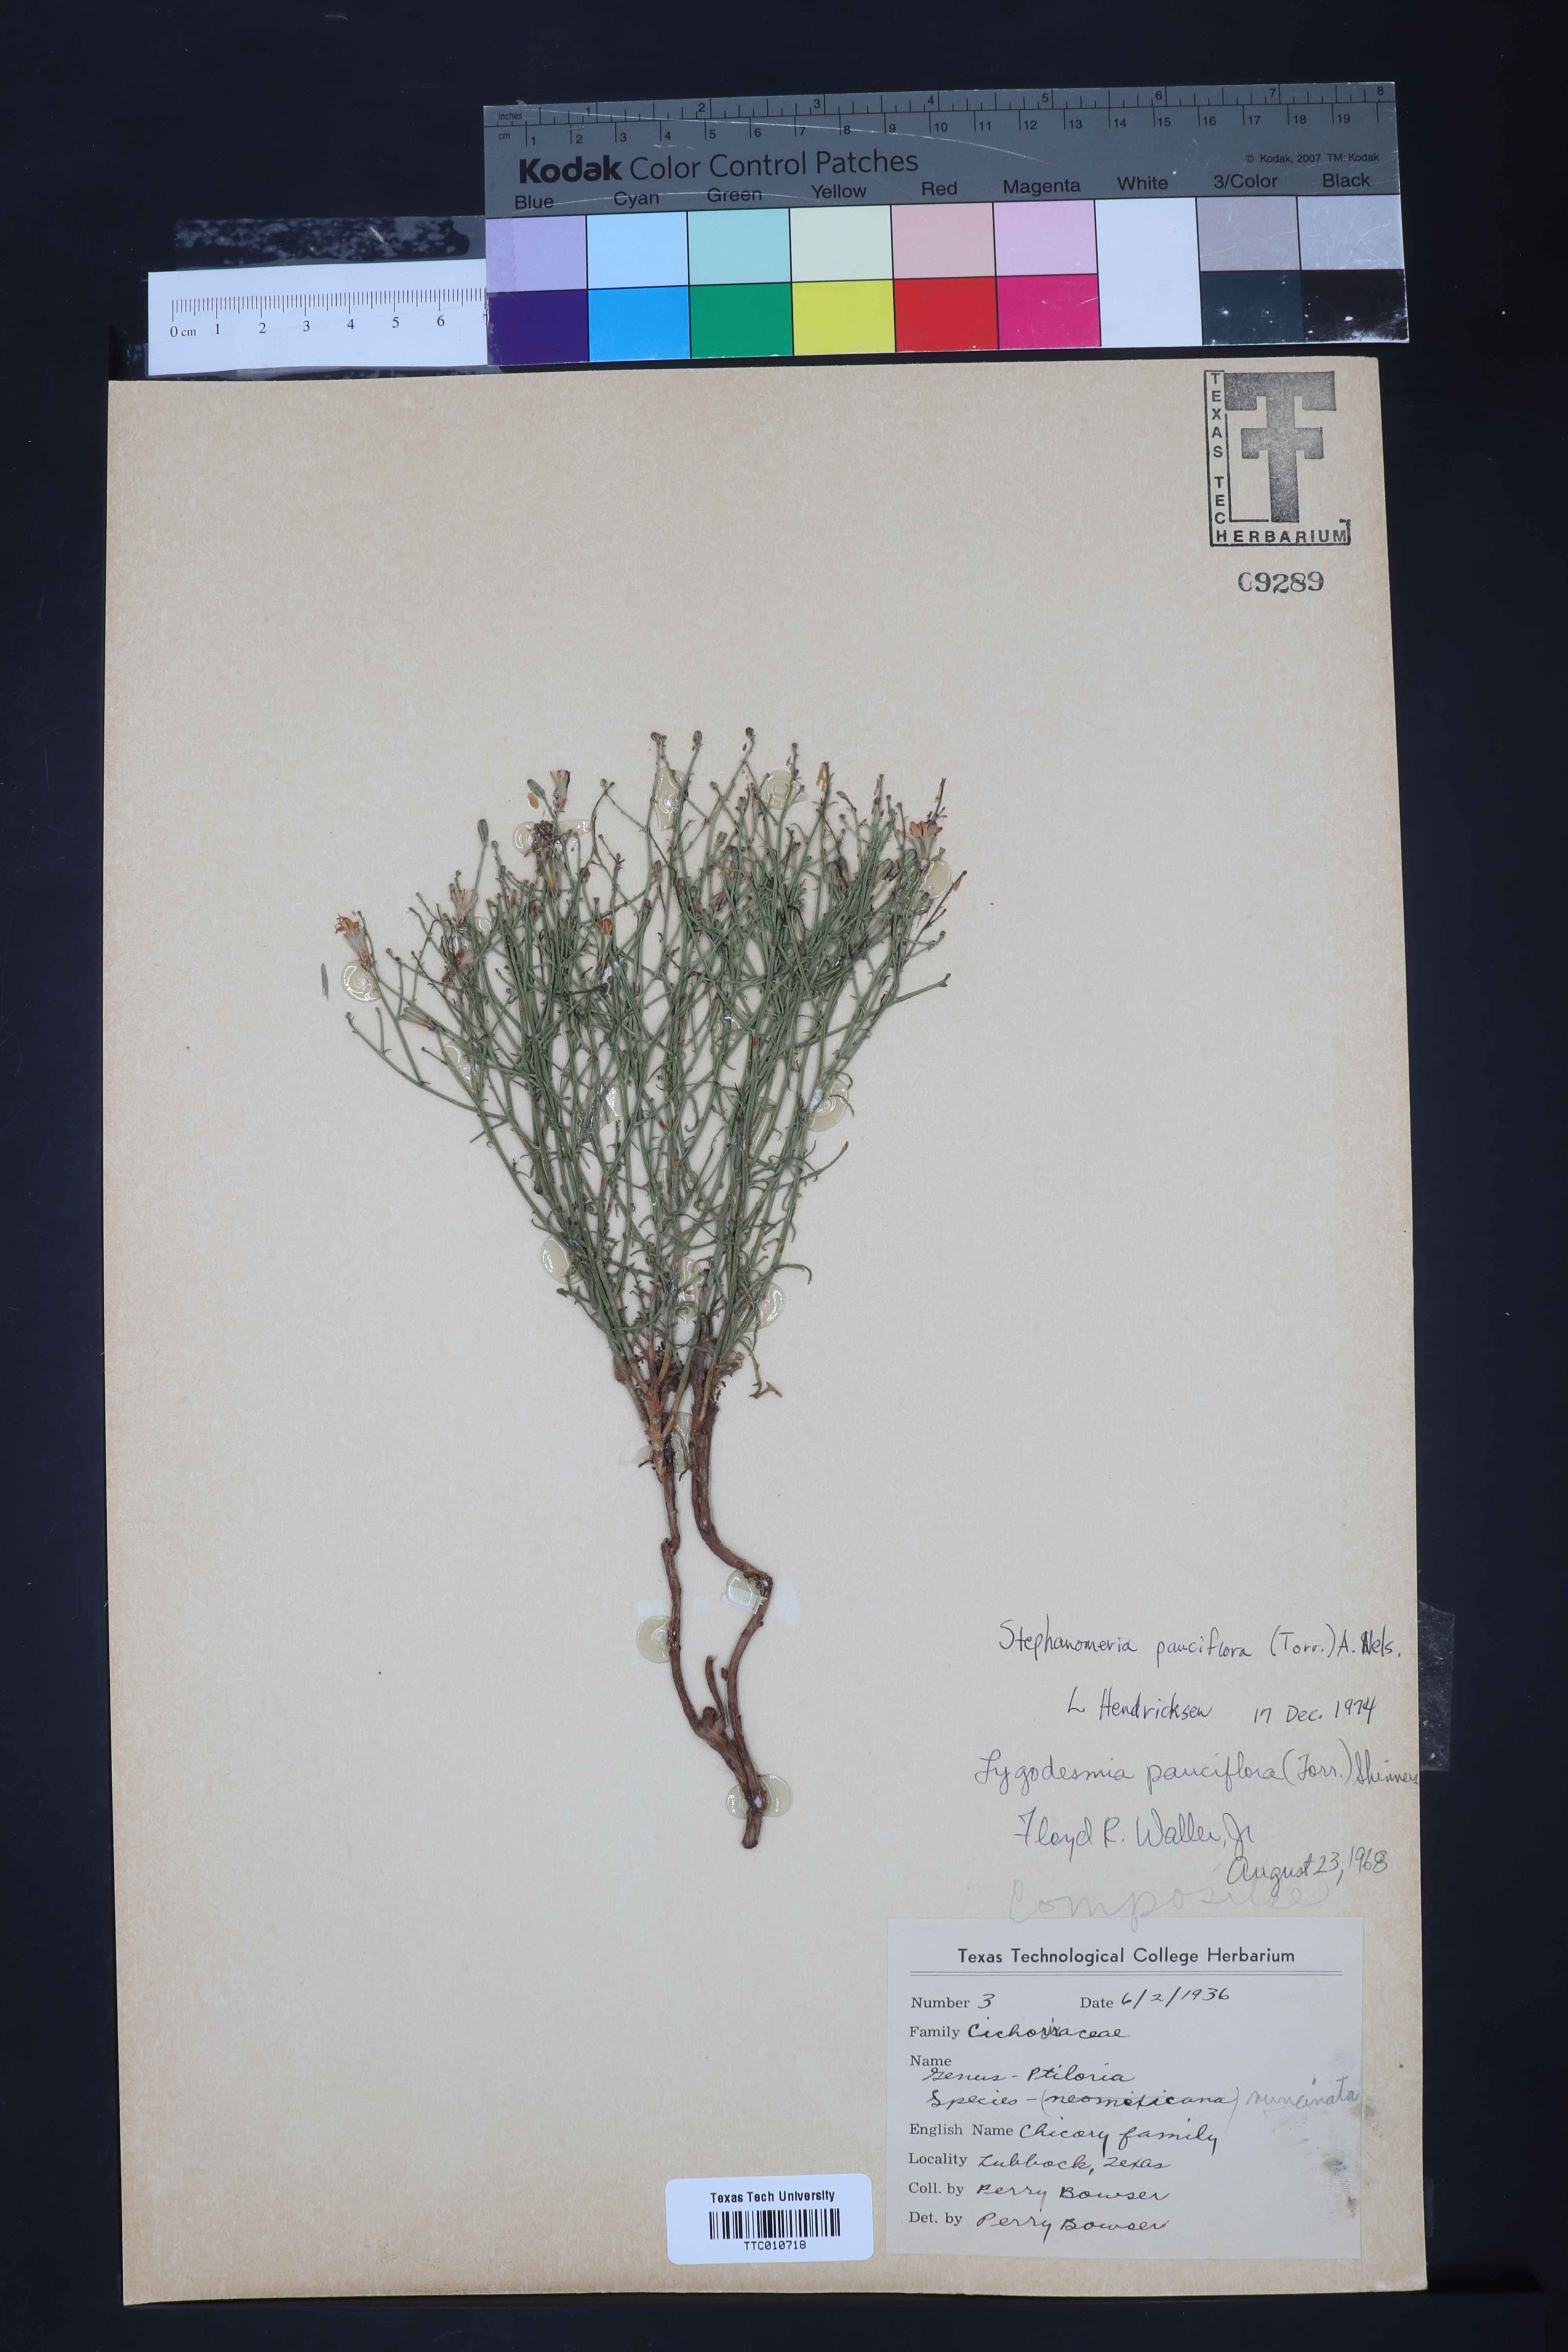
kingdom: Plantae
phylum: Tracheophyta
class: Magnoliopsida
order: Asterales
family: Asteraceae
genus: Stephanomeria
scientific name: Stephanomeria pauciflora
